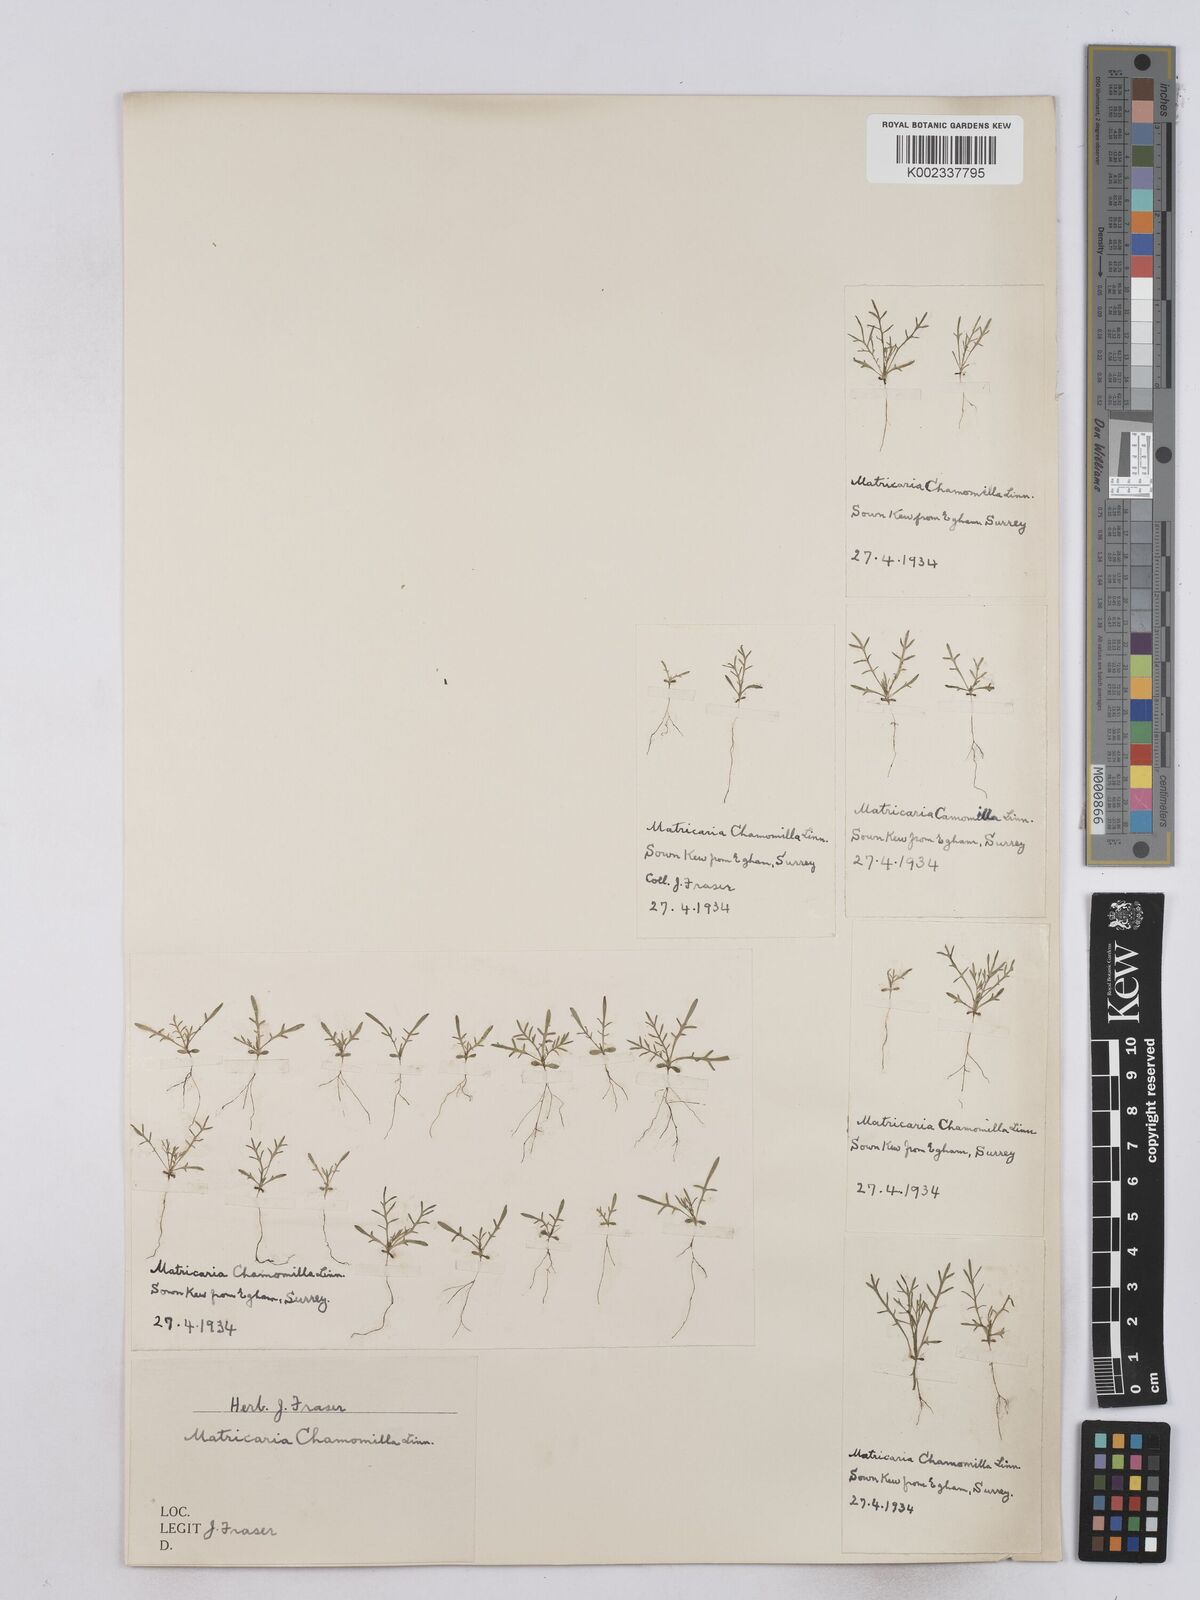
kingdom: Plantae
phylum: Tracheophyta
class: Magnoliopsida
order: Asterales
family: Asteraceae
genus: Matricaria
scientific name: Matricaria chamomilla
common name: Scented mayweed
